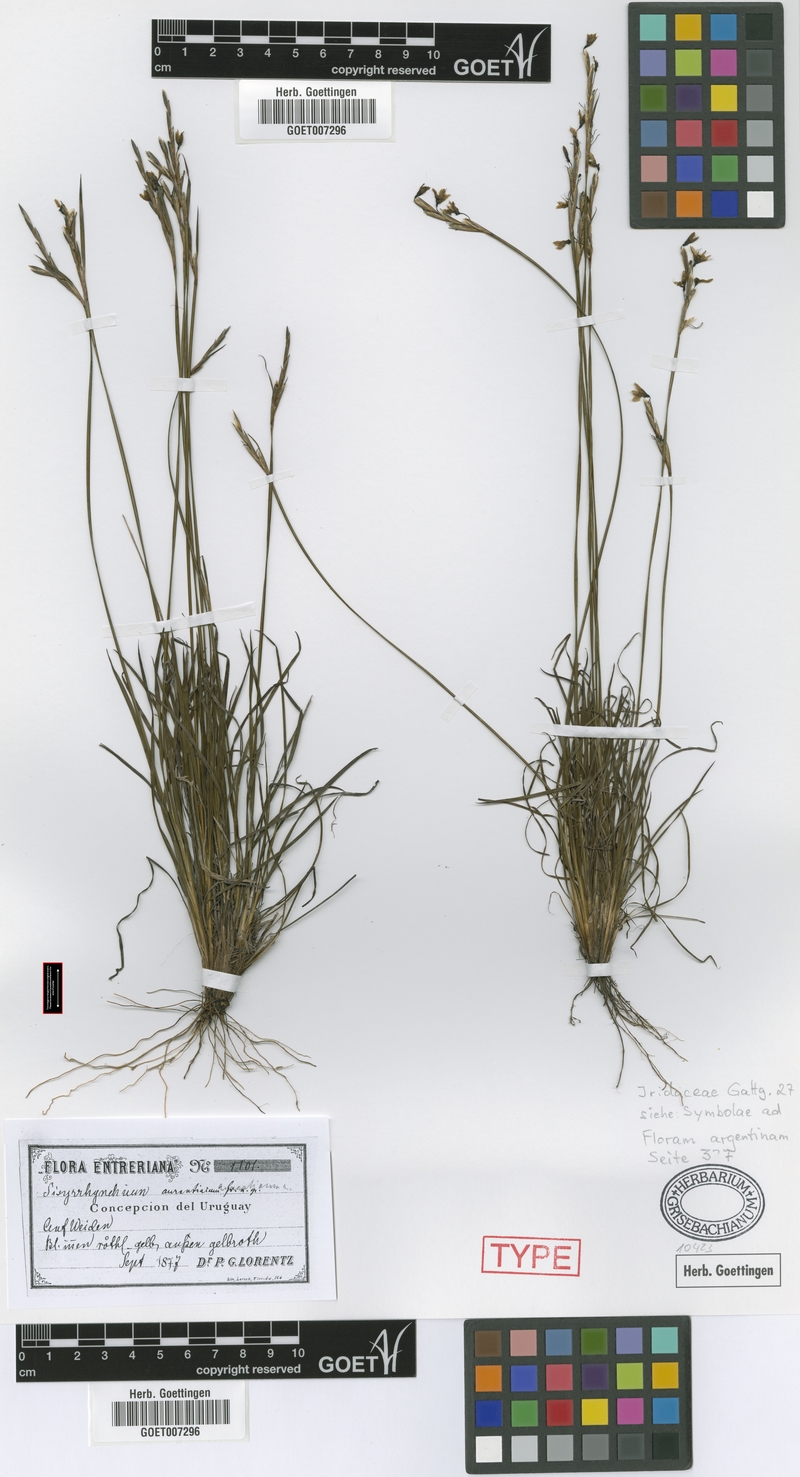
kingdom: Plantae
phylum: Tracheophyta
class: Liliopsida
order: Asparagales
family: Iridaceae
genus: Sisyrinchium
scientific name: Sisyrinchium avenaceum
